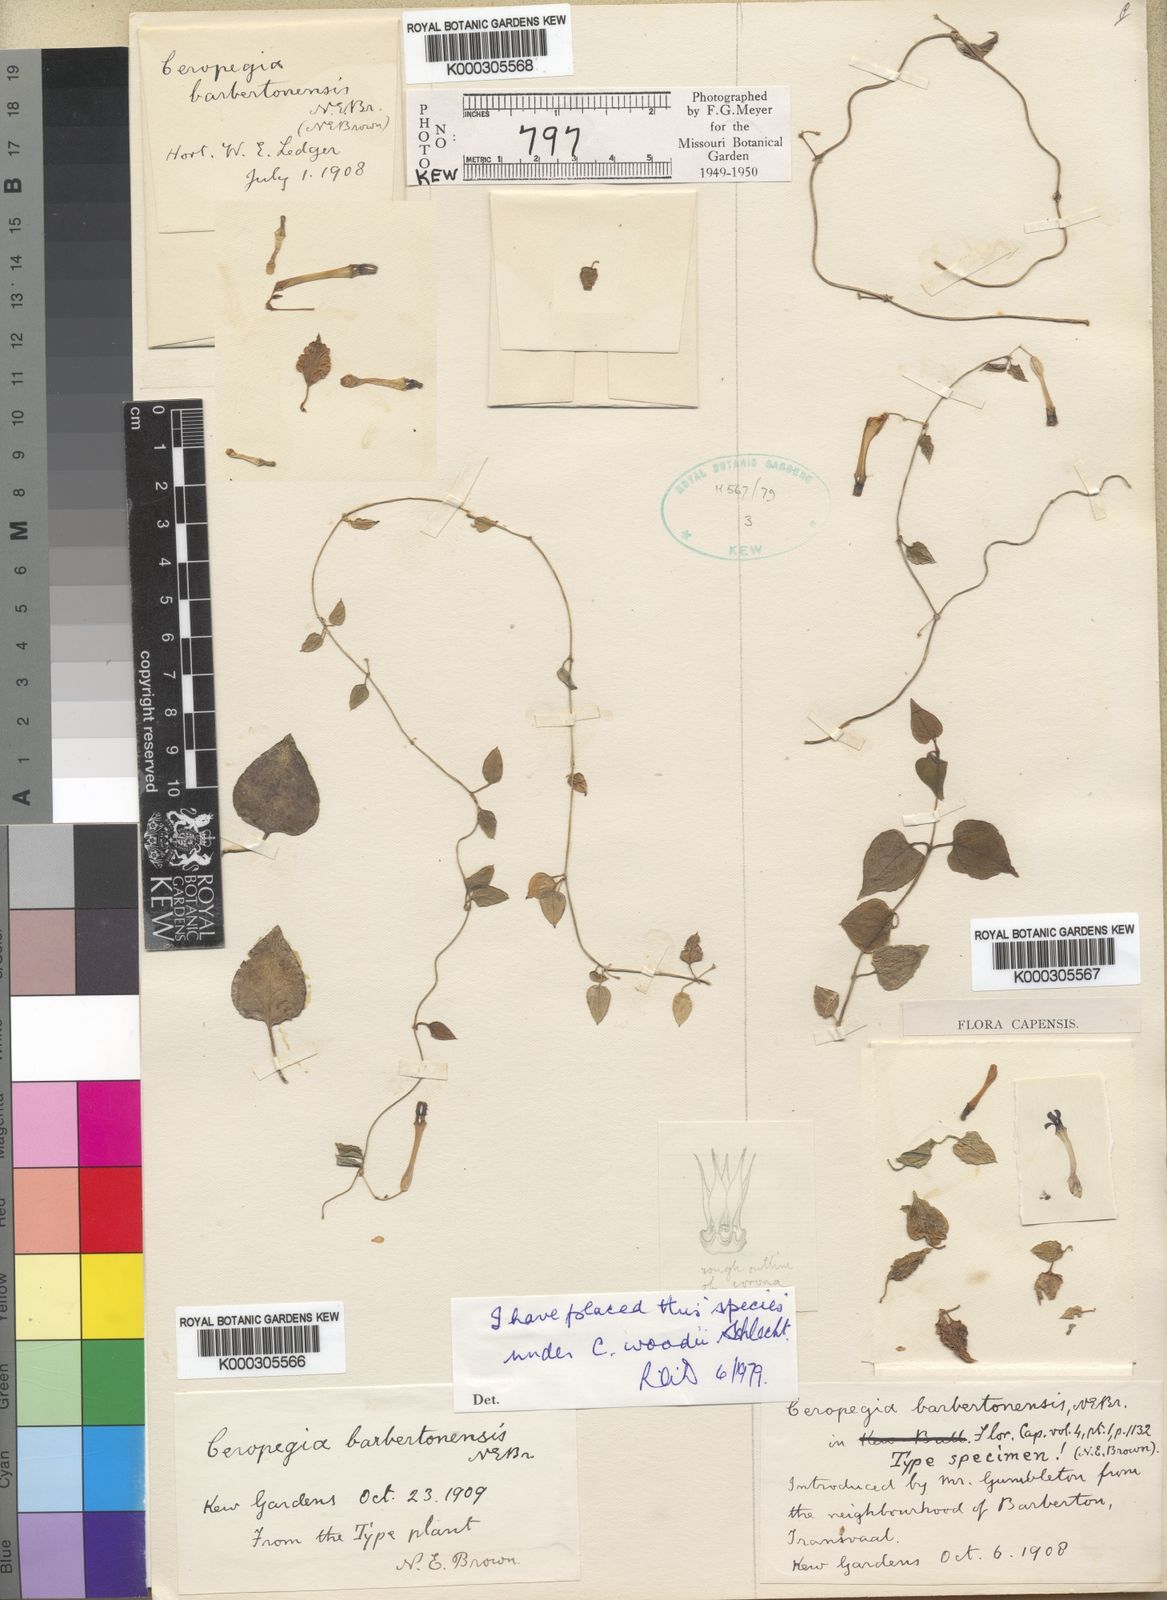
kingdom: Plantae
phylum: Tracheophyta
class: Magnoliopsida
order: Gentianales
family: Apocynaceae
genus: Ceropegia
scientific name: Ceropegia woodii
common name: Hearts entangled
